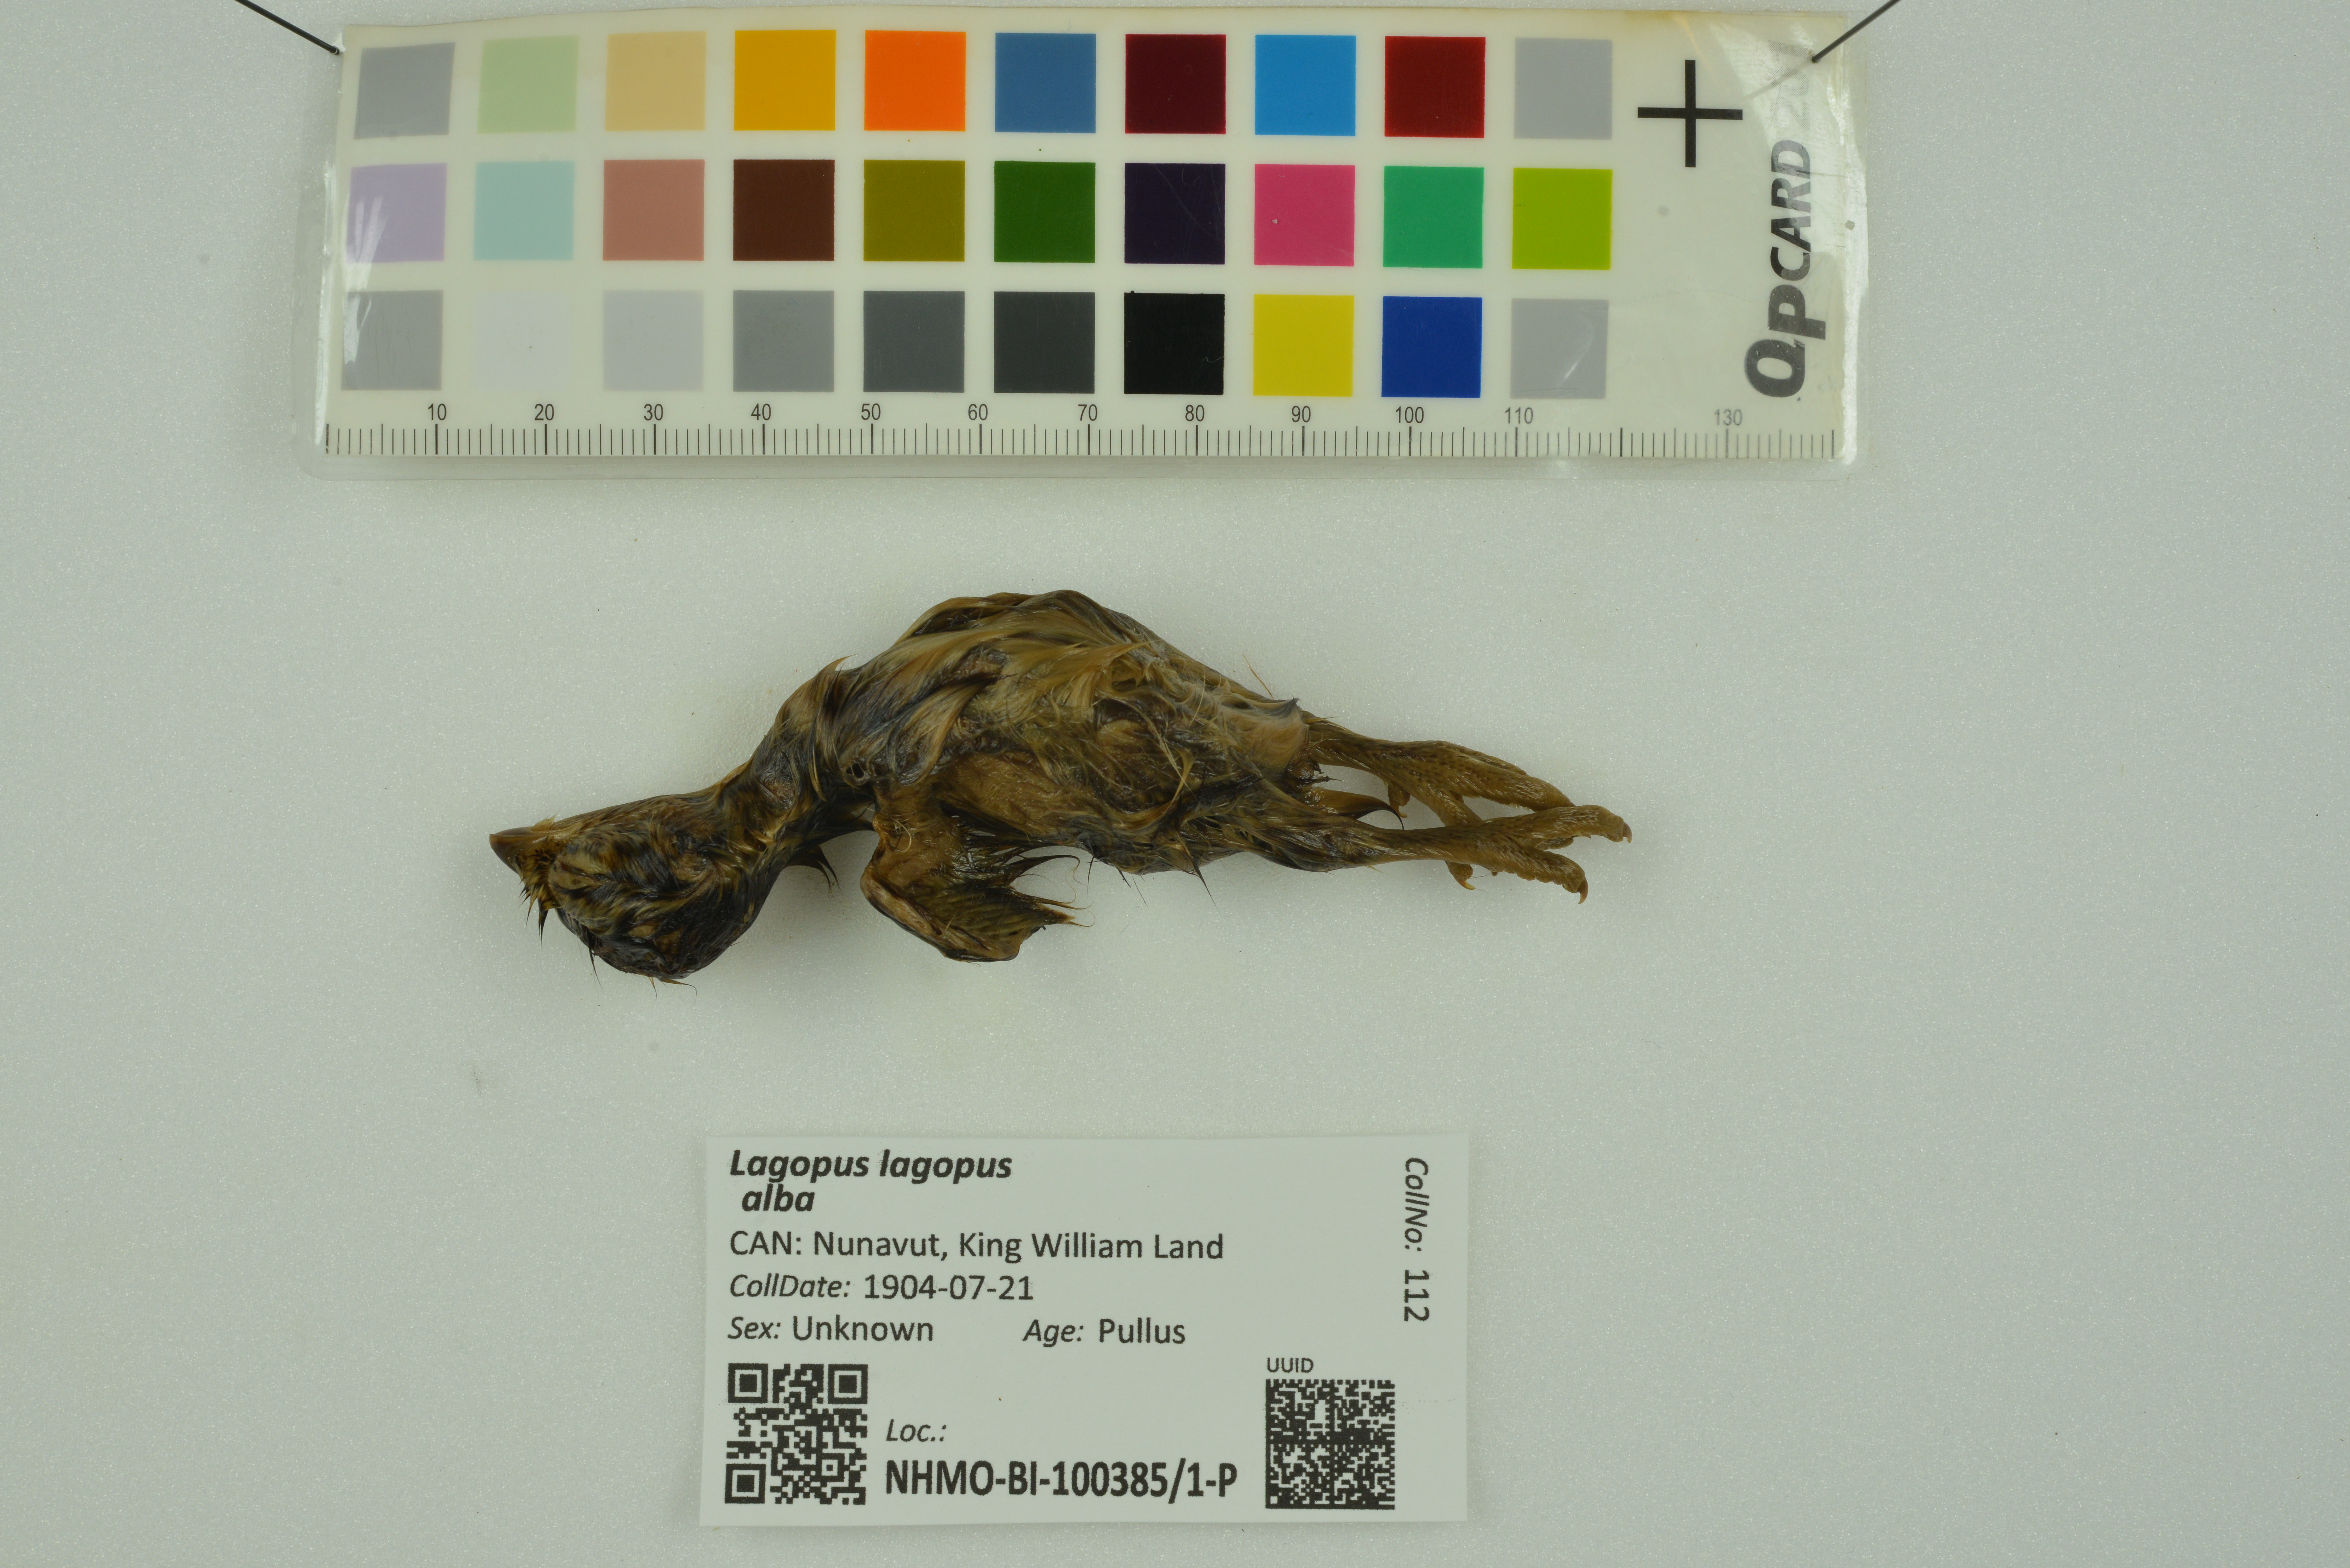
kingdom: Animalia
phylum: Chordata
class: Aves
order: Galliformes
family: Phasianidae
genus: Lagopus
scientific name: Lagopus lagopus
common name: Willow ptarmigan
